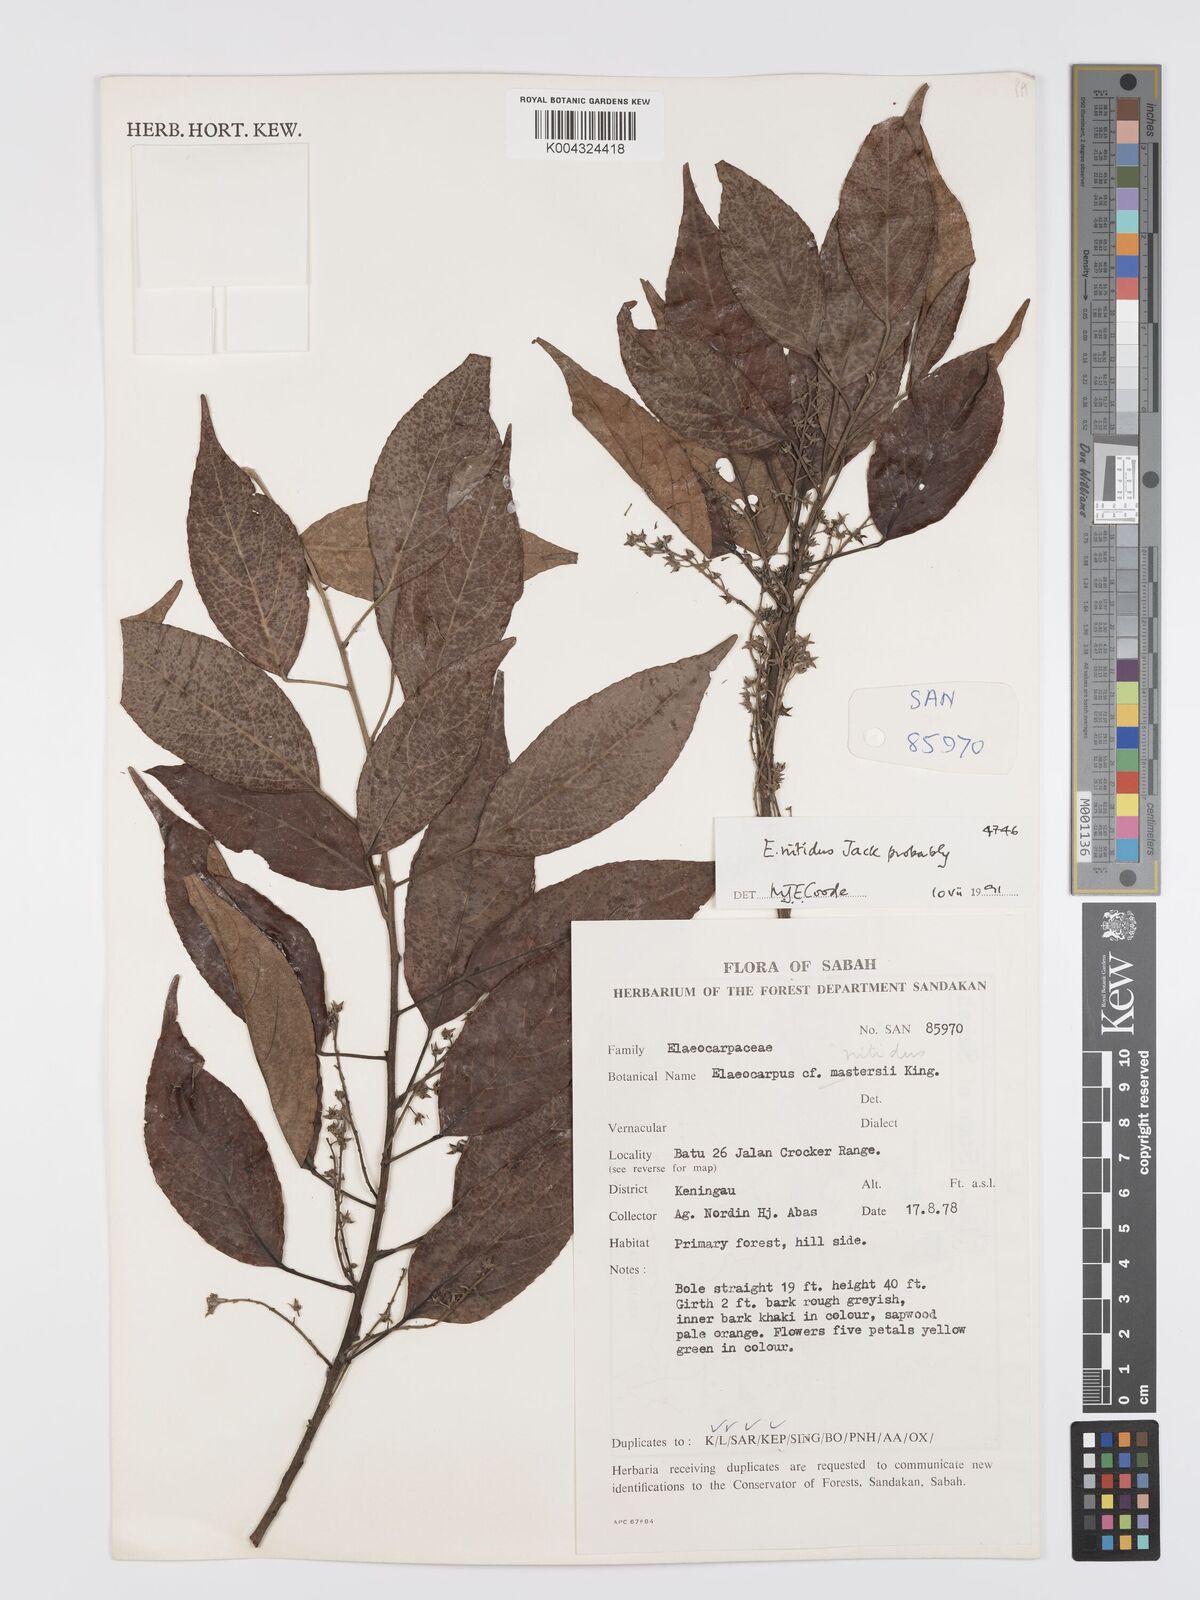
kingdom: Plantae
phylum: Tracheophyta
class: Magnoliopsida
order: Oxalidales
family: Elaeocarpaceae
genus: Elaeocarpus
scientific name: Elaeocarpus nitidus
